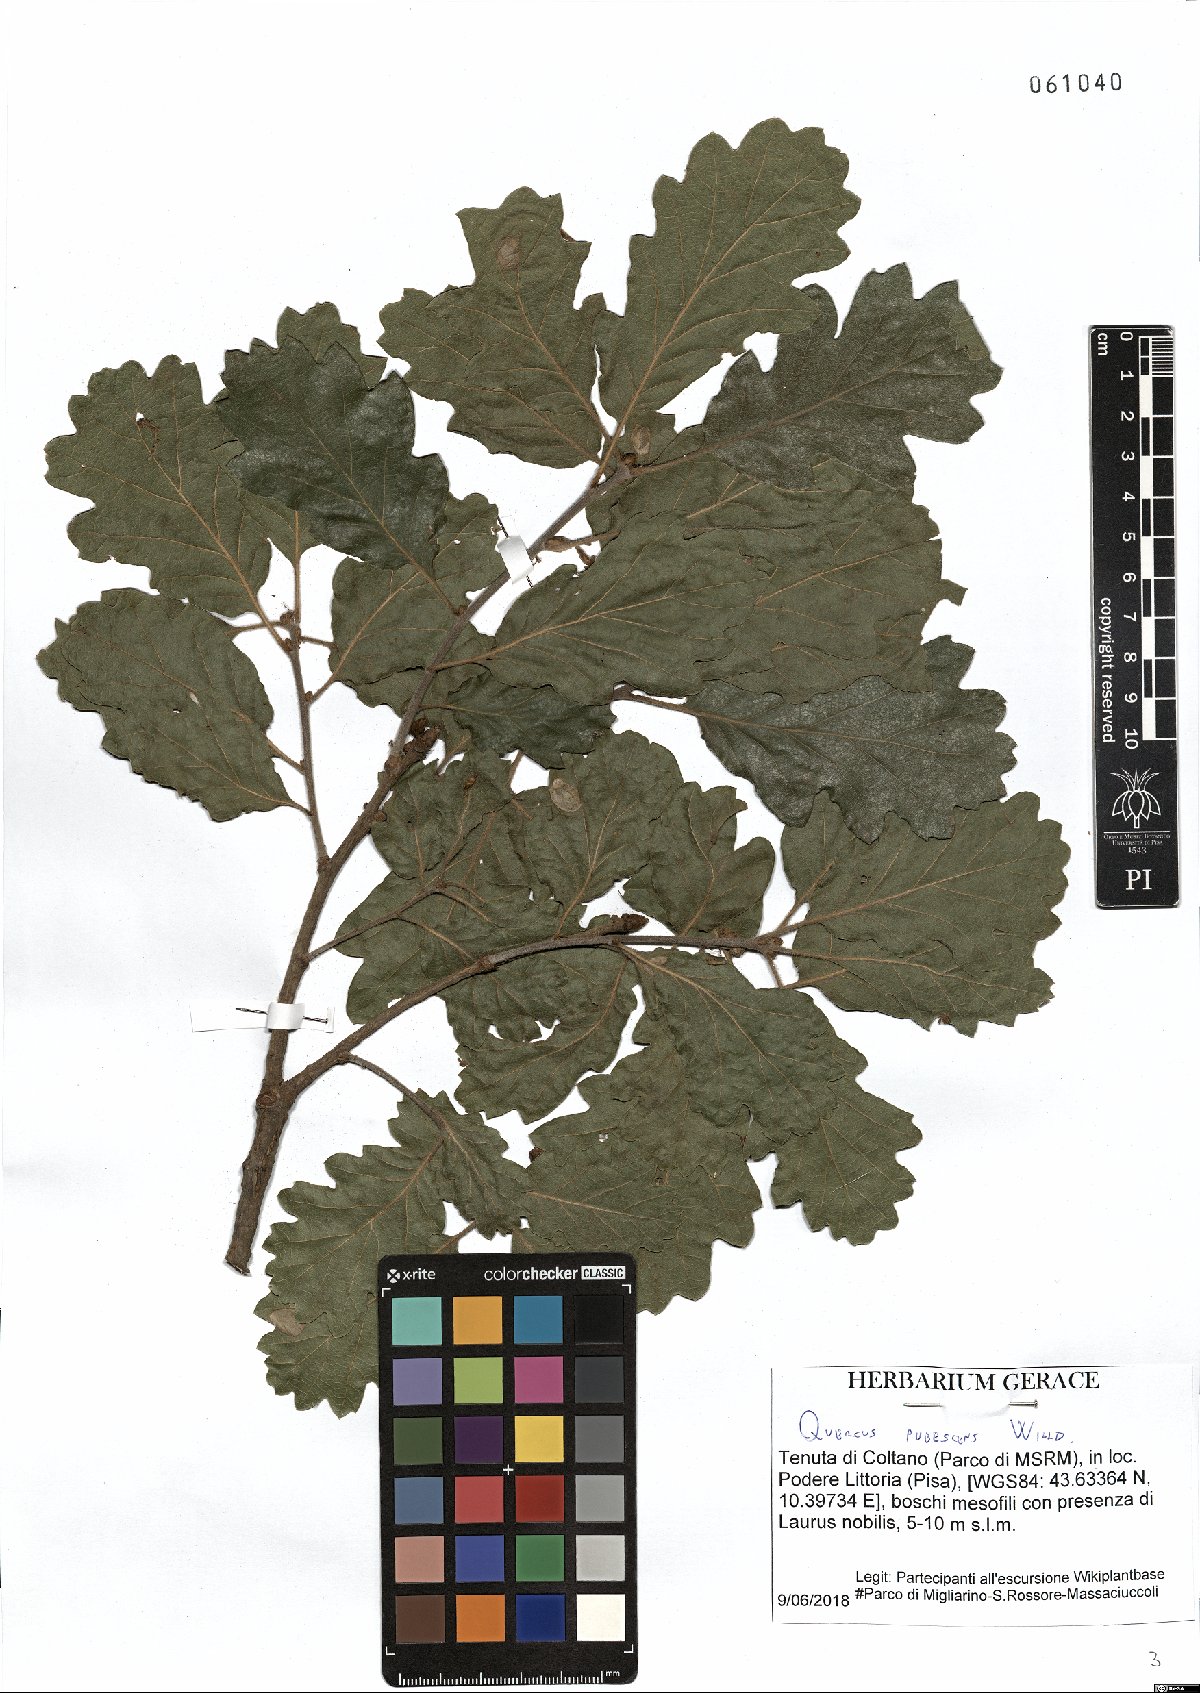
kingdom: Plantae
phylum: Tracheophyta
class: Magnoliopsida
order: Fagales
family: Fagaceae
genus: Quercus
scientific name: Quercus pubescens
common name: Downy oak
